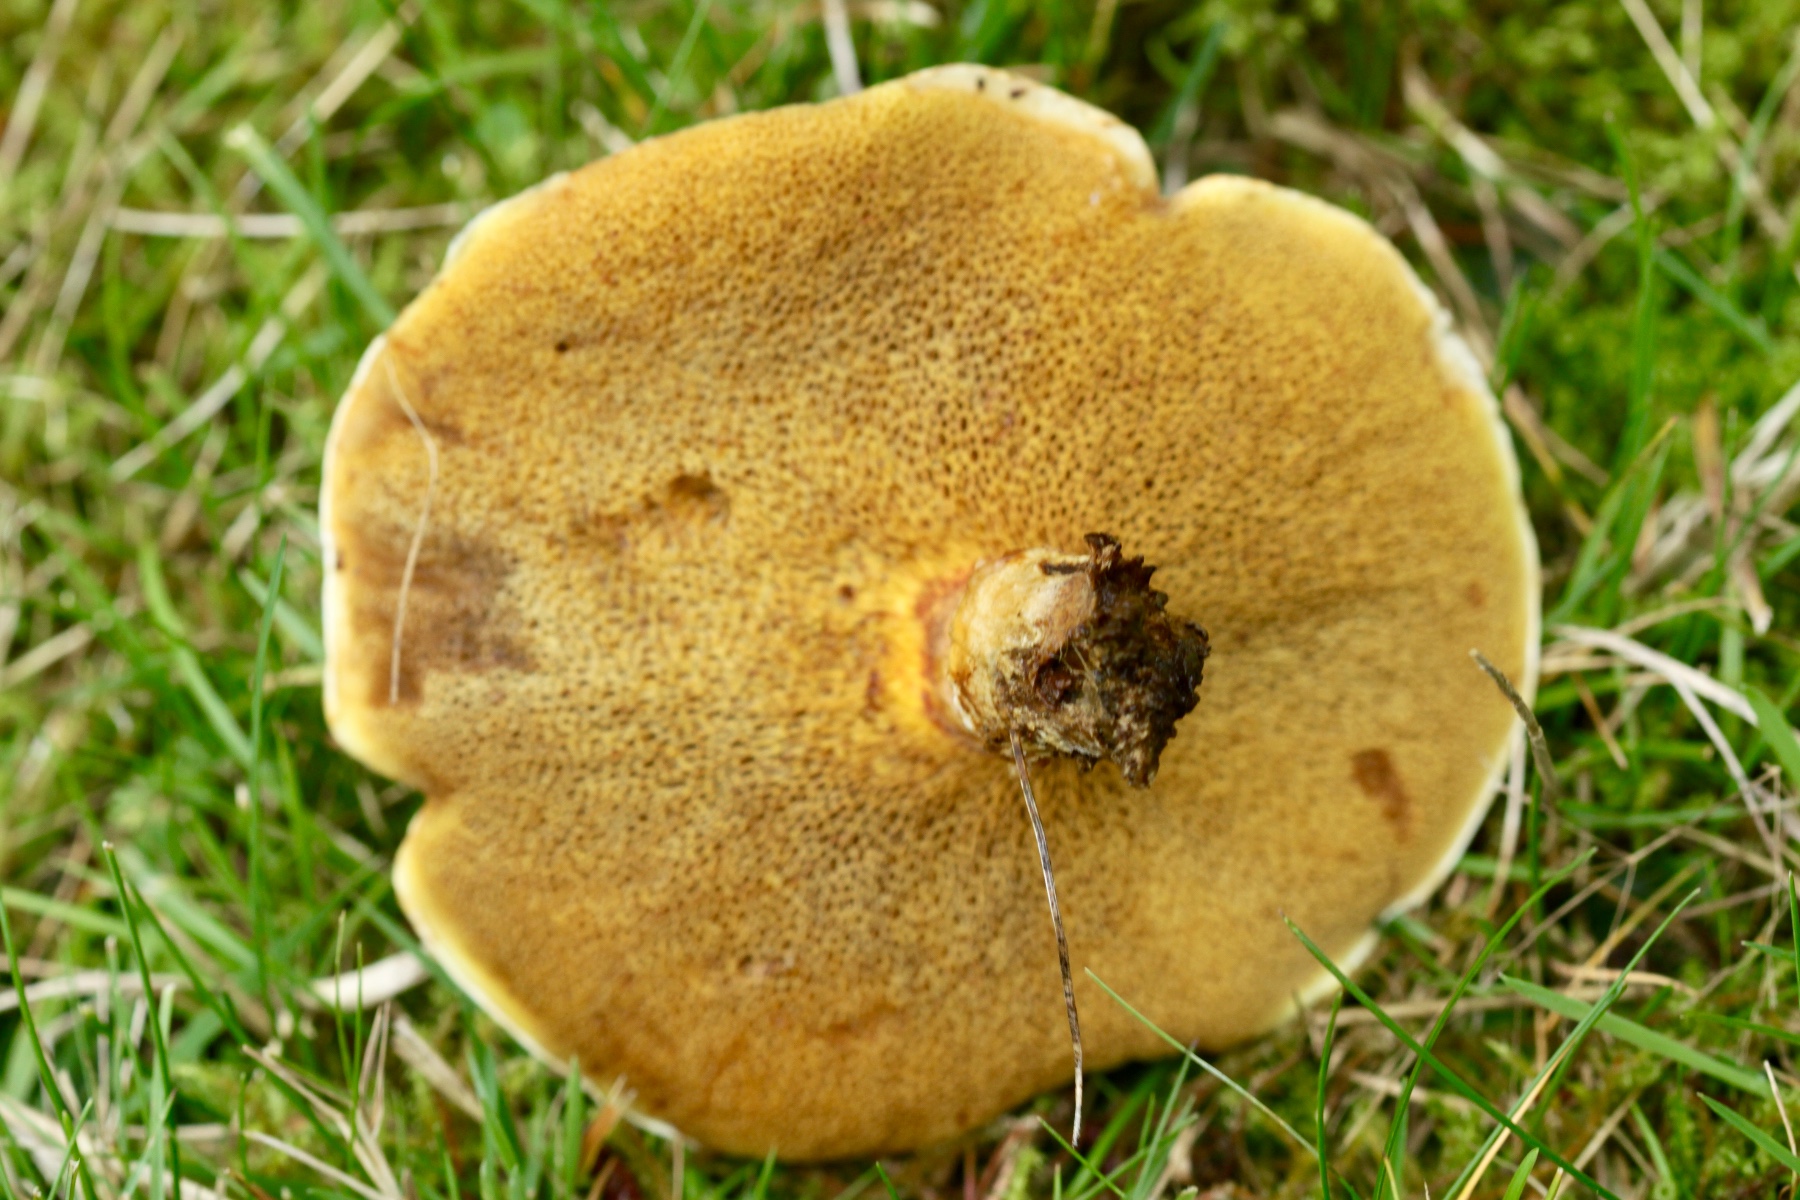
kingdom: Fungi
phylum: Basidiomycota
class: Agaricomycetes
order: Boletales
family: Suillaceae
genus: Suillus
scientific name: Suillus grevillei
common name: lærke-slimrørhat
